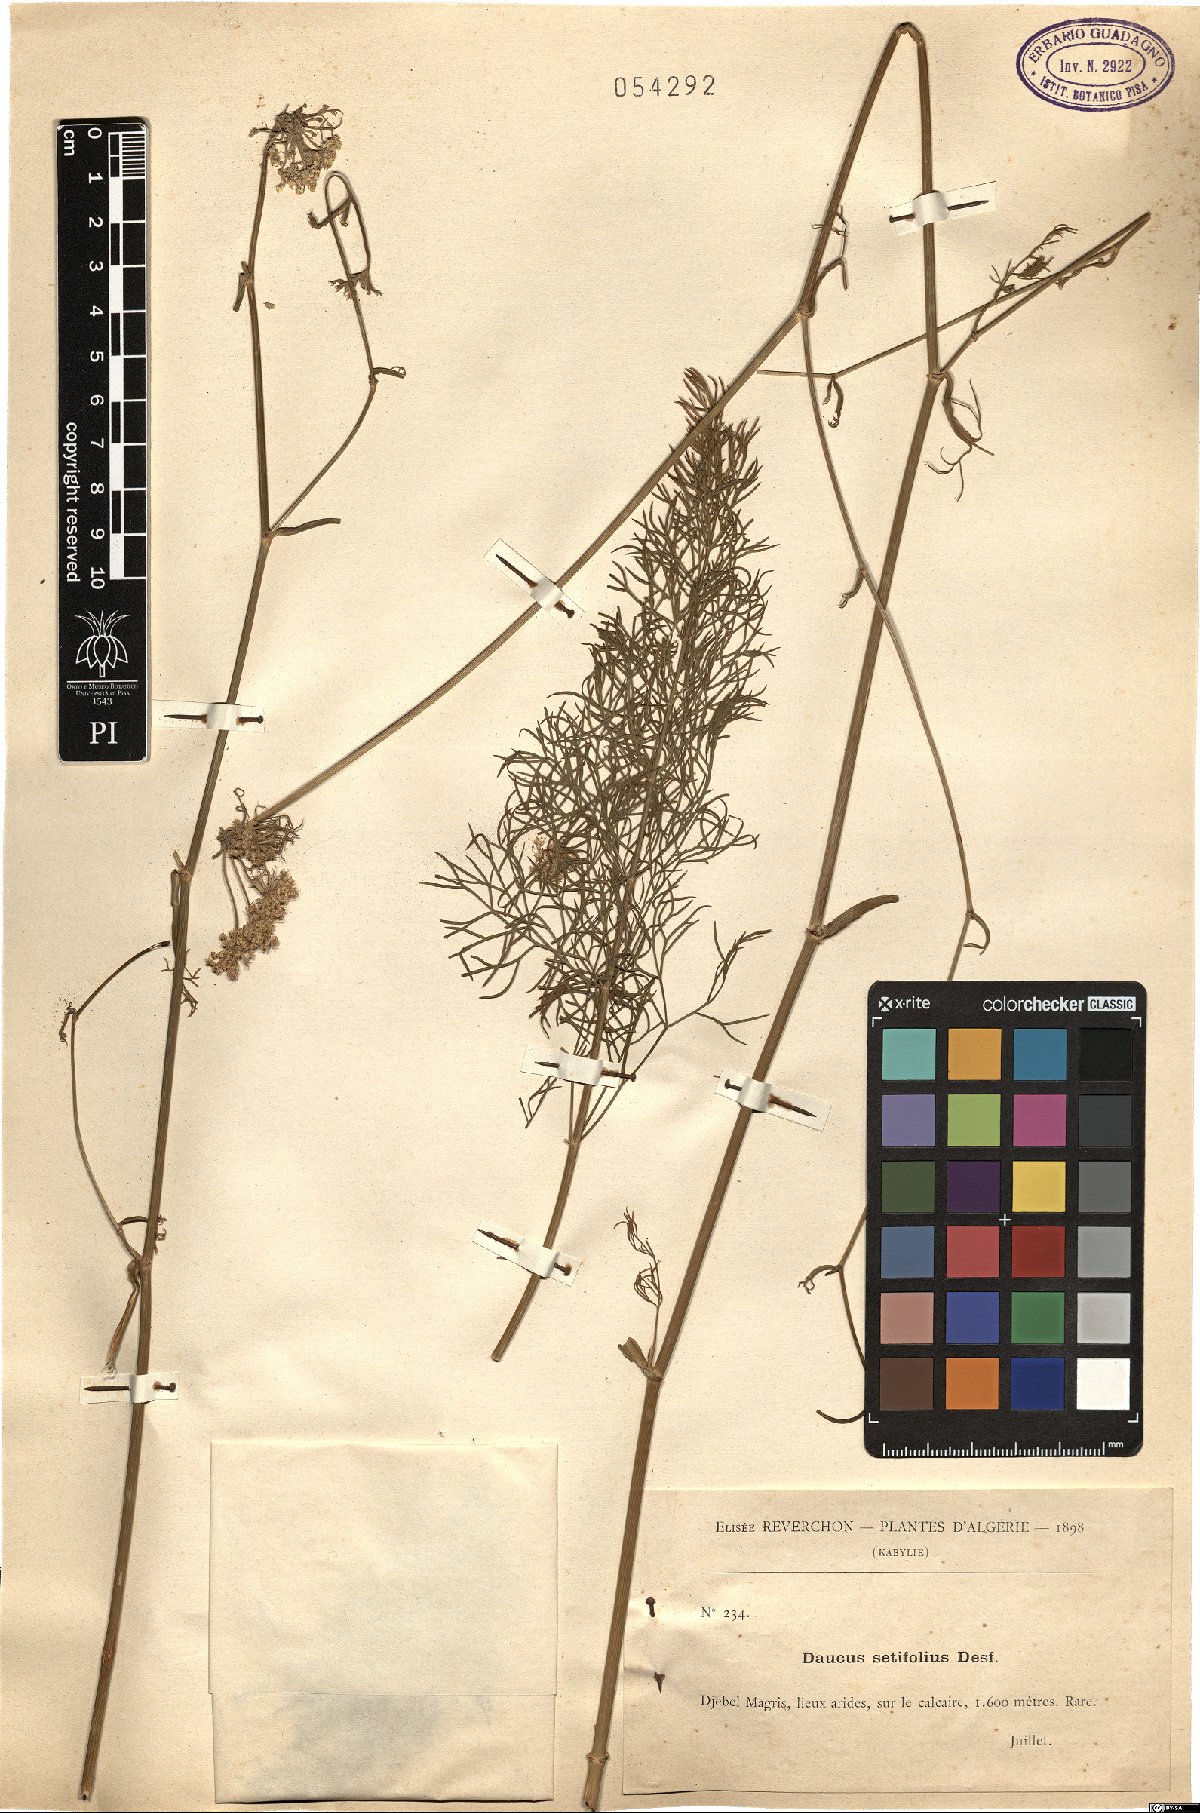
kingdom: Plantae
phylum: Tracheophyta
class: Magnoliopsida
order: Apiales
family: Apiaceae
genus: Daucus
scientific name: Daucus setifolius
